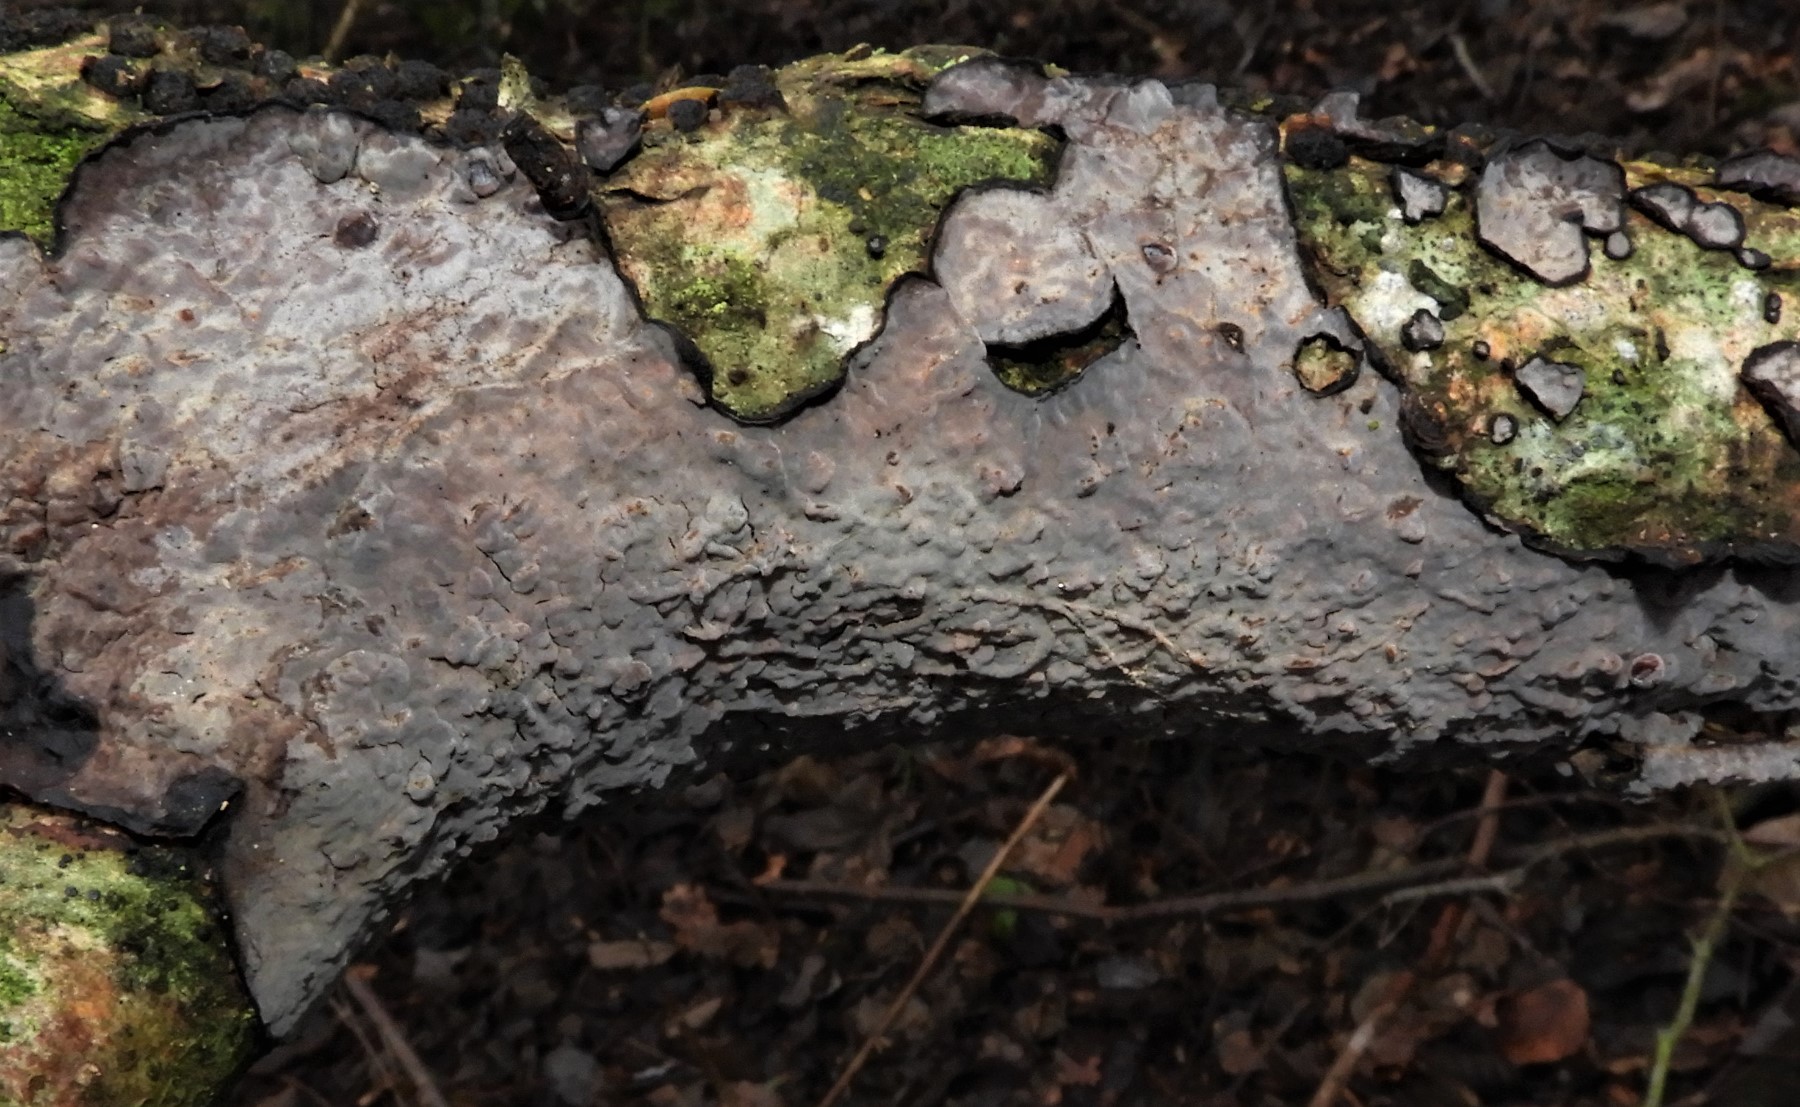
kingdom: Fungi
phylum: Basidiomycota
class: Agaricomycetes
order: Russulales
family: Peniophoraceae
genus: Peniophora
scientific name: Peniophora quercina
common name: ege-voksskind
